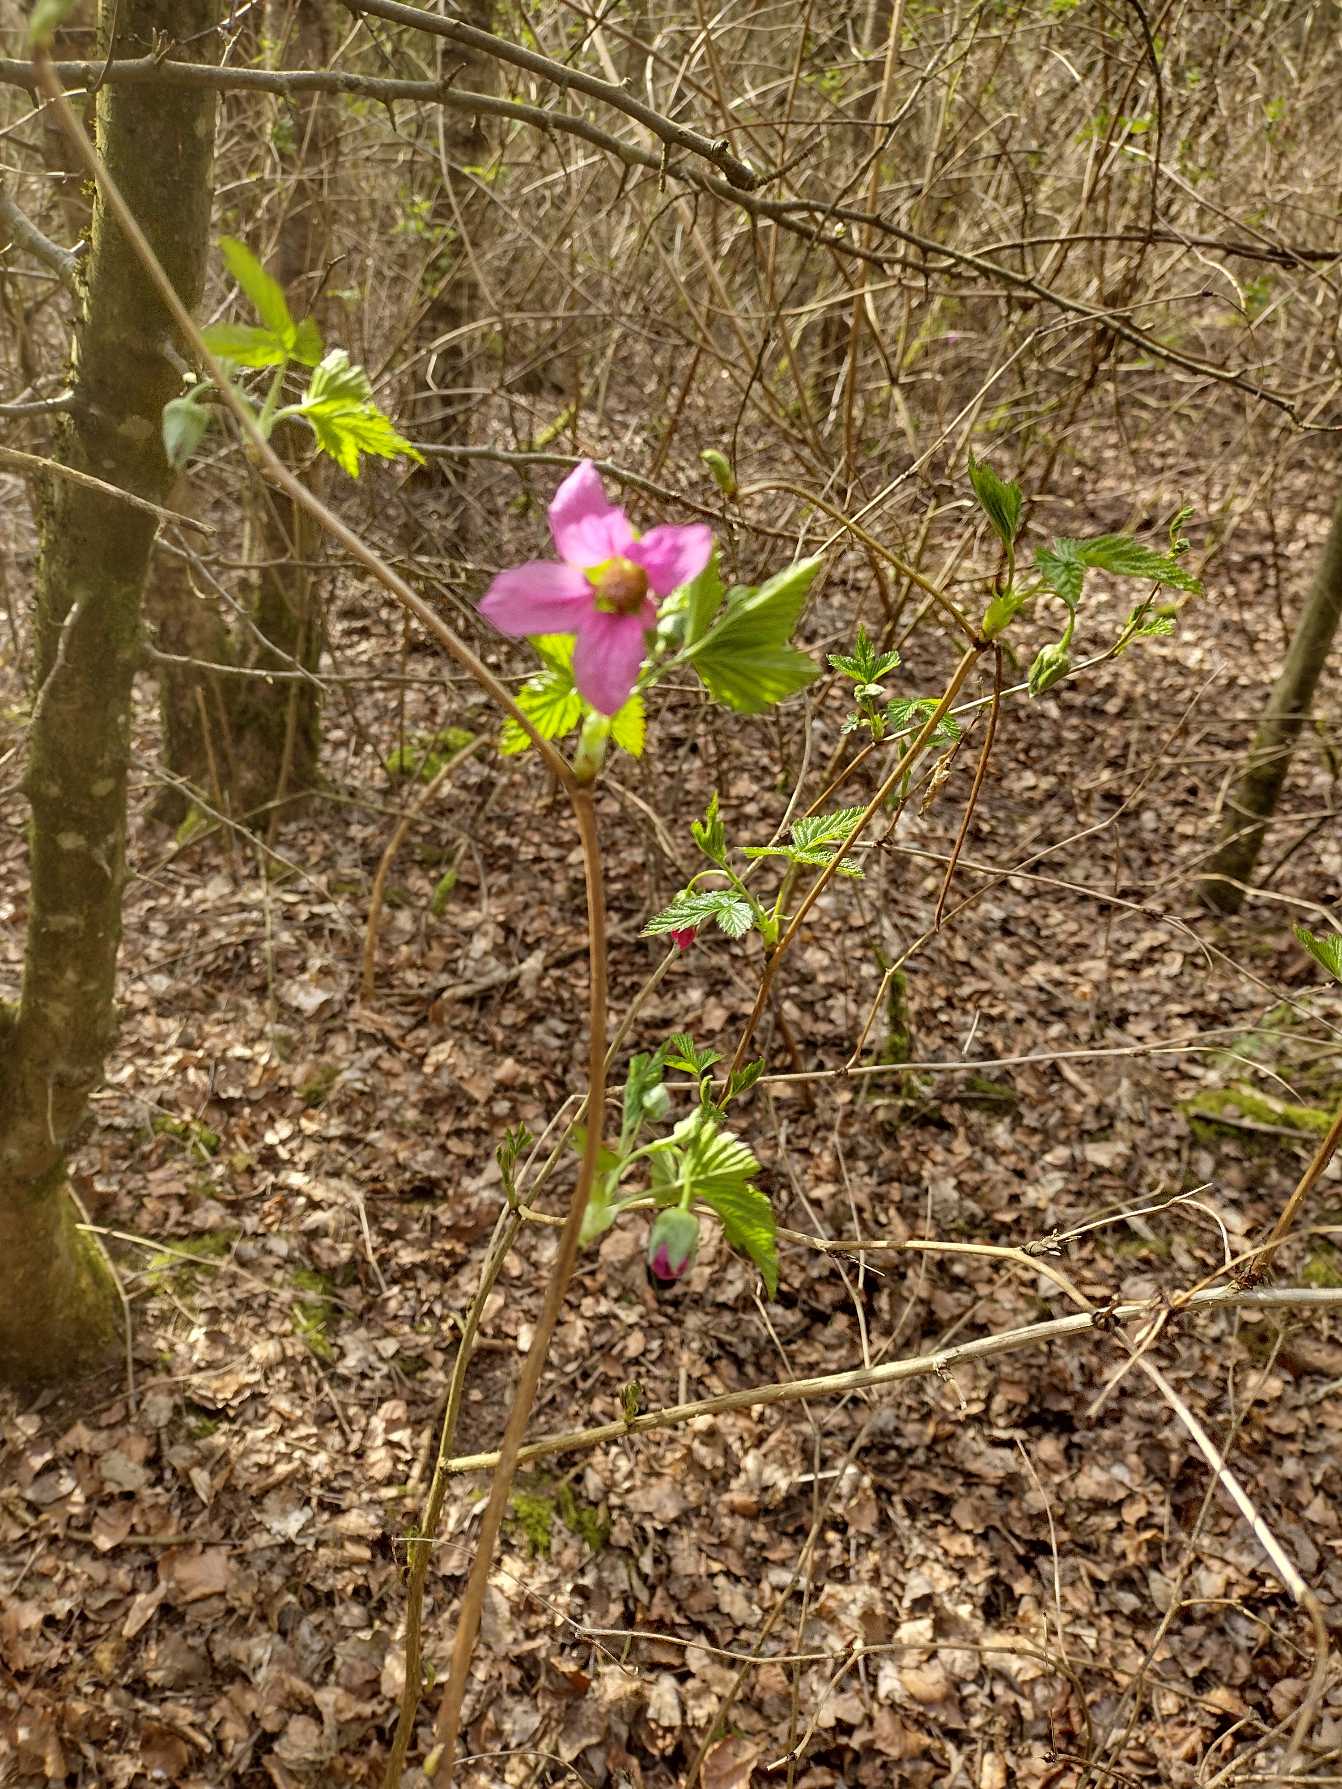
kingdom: Plantae
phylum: Tracheophyta
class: Magnoliopsida
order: Rosales
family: Rosaceae
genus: Rubus
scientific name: Rubus spectabilis
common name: Laksebær
